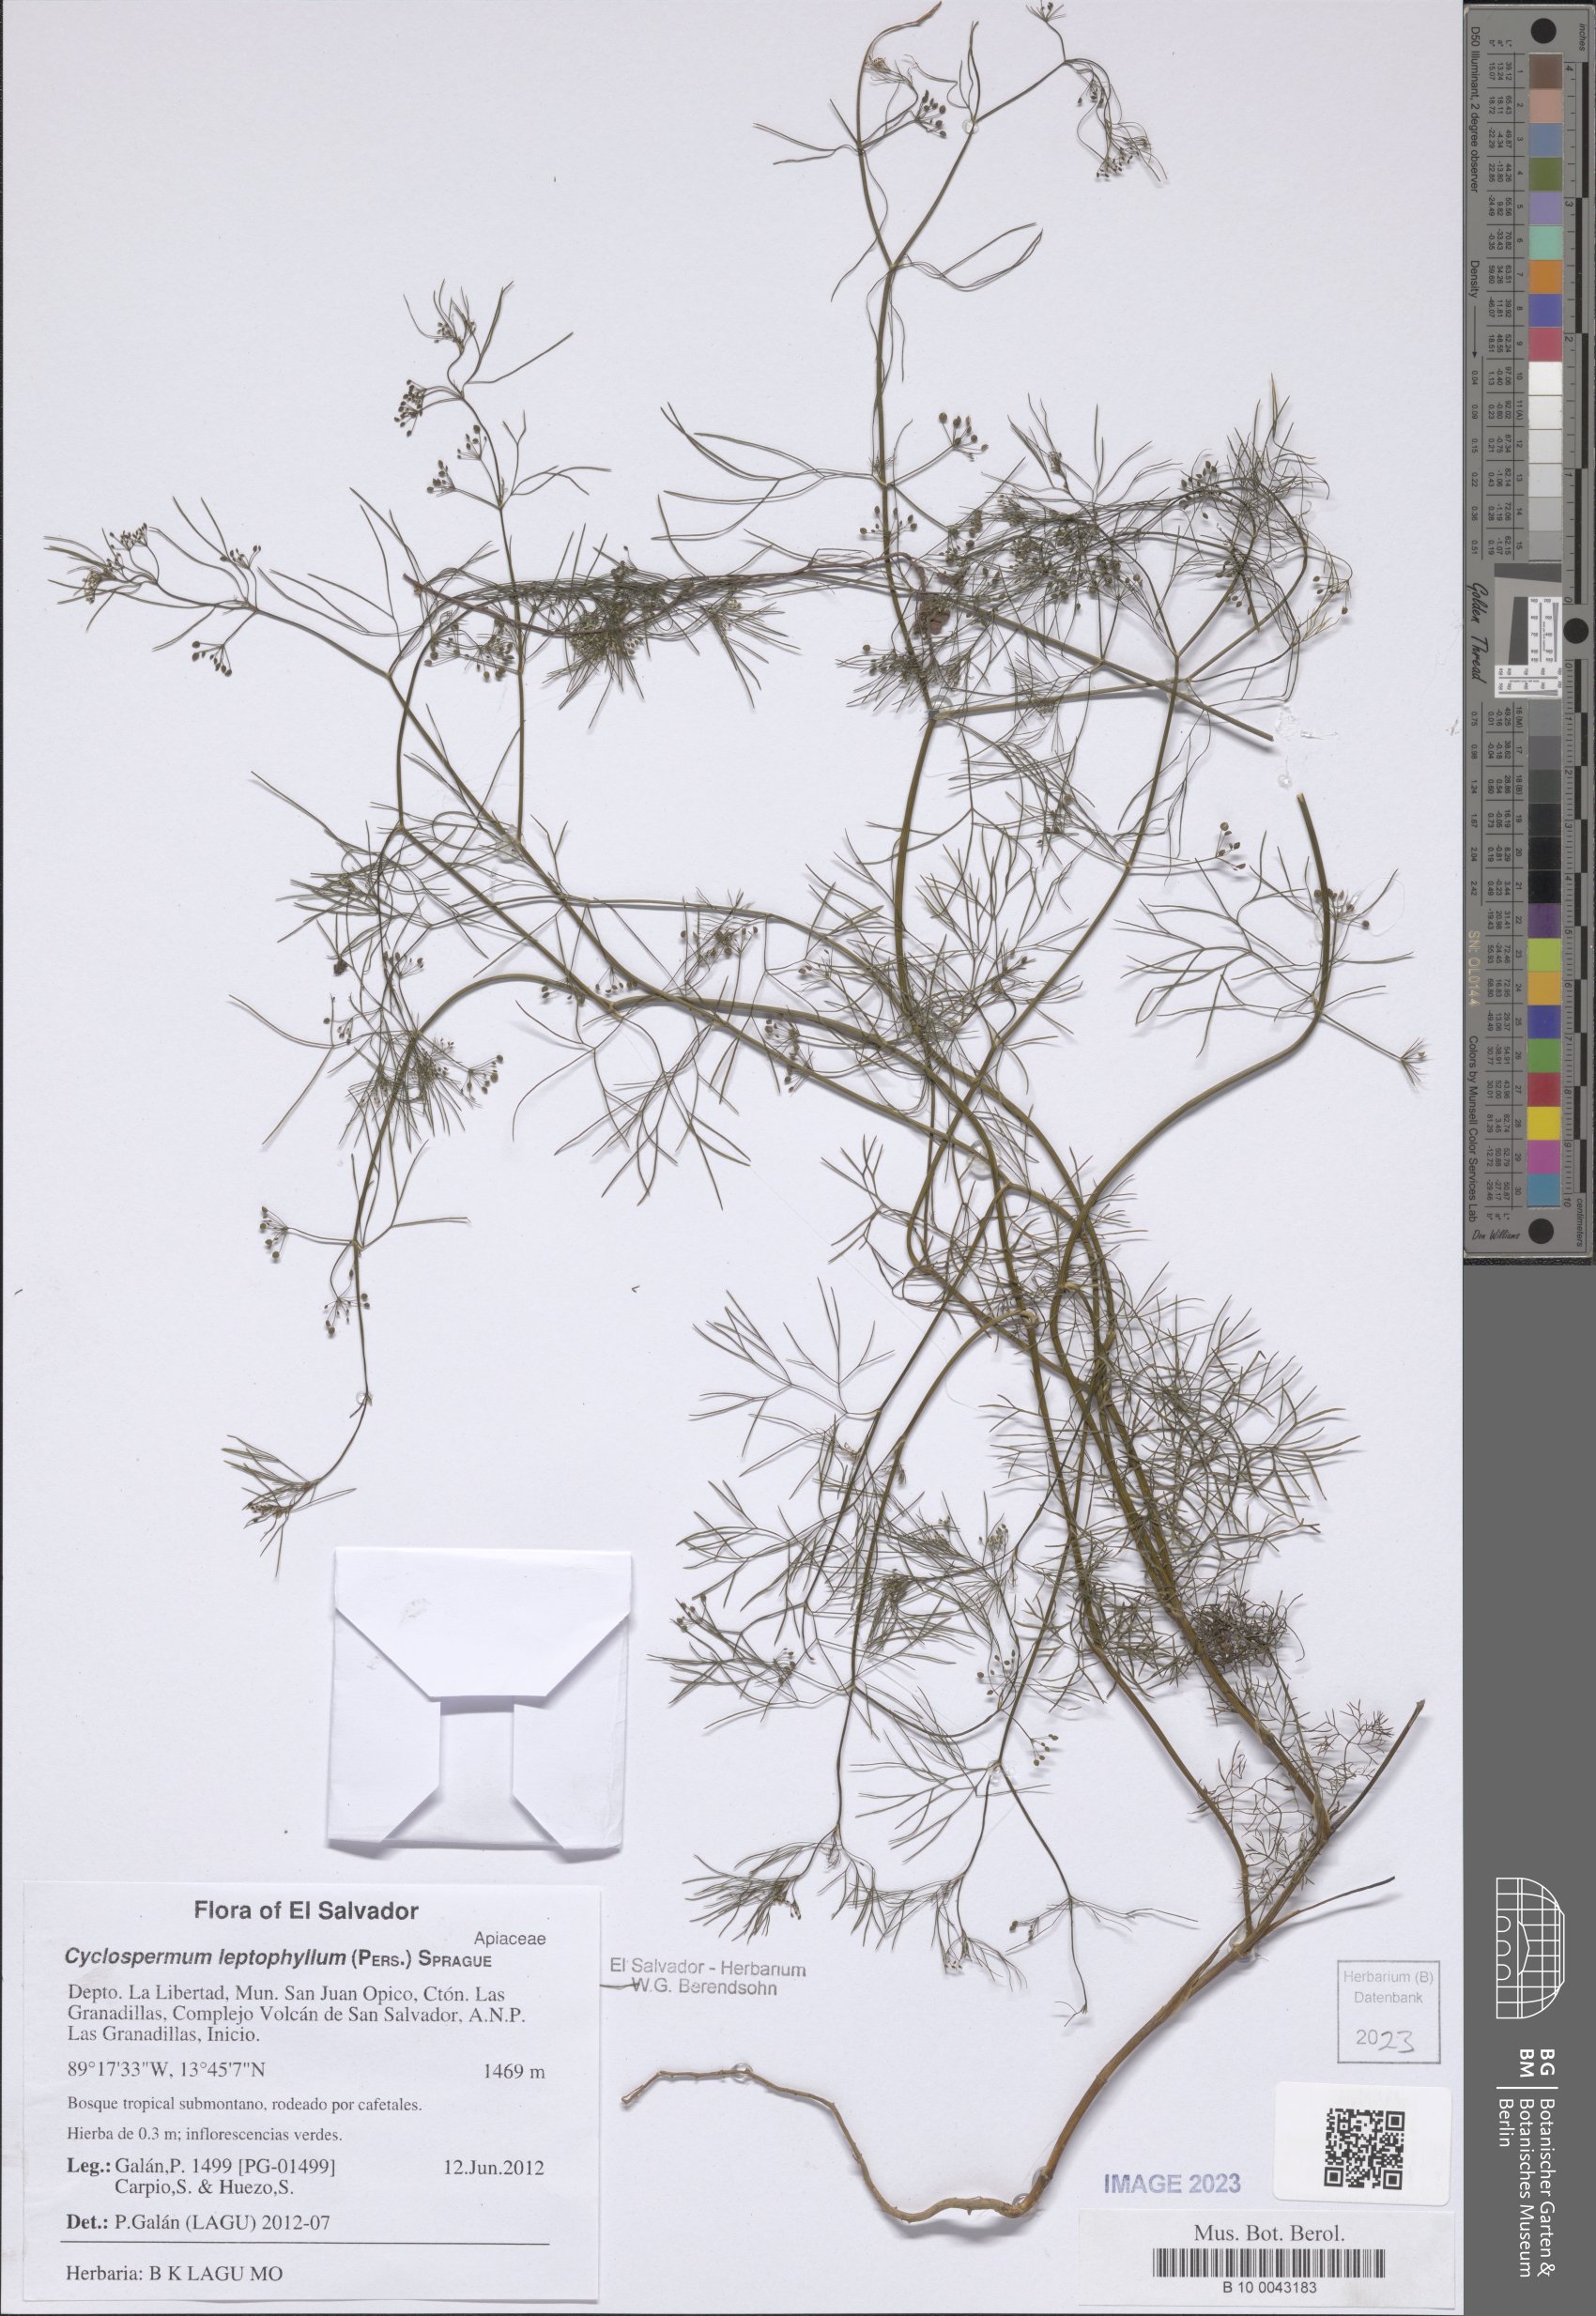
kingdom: Plantae
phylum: Tracheophyta
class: Magnoliopsida
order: Apiales
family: Apiaceae
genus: Cyclospermum
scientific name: Cyclospermum leptophyllum
